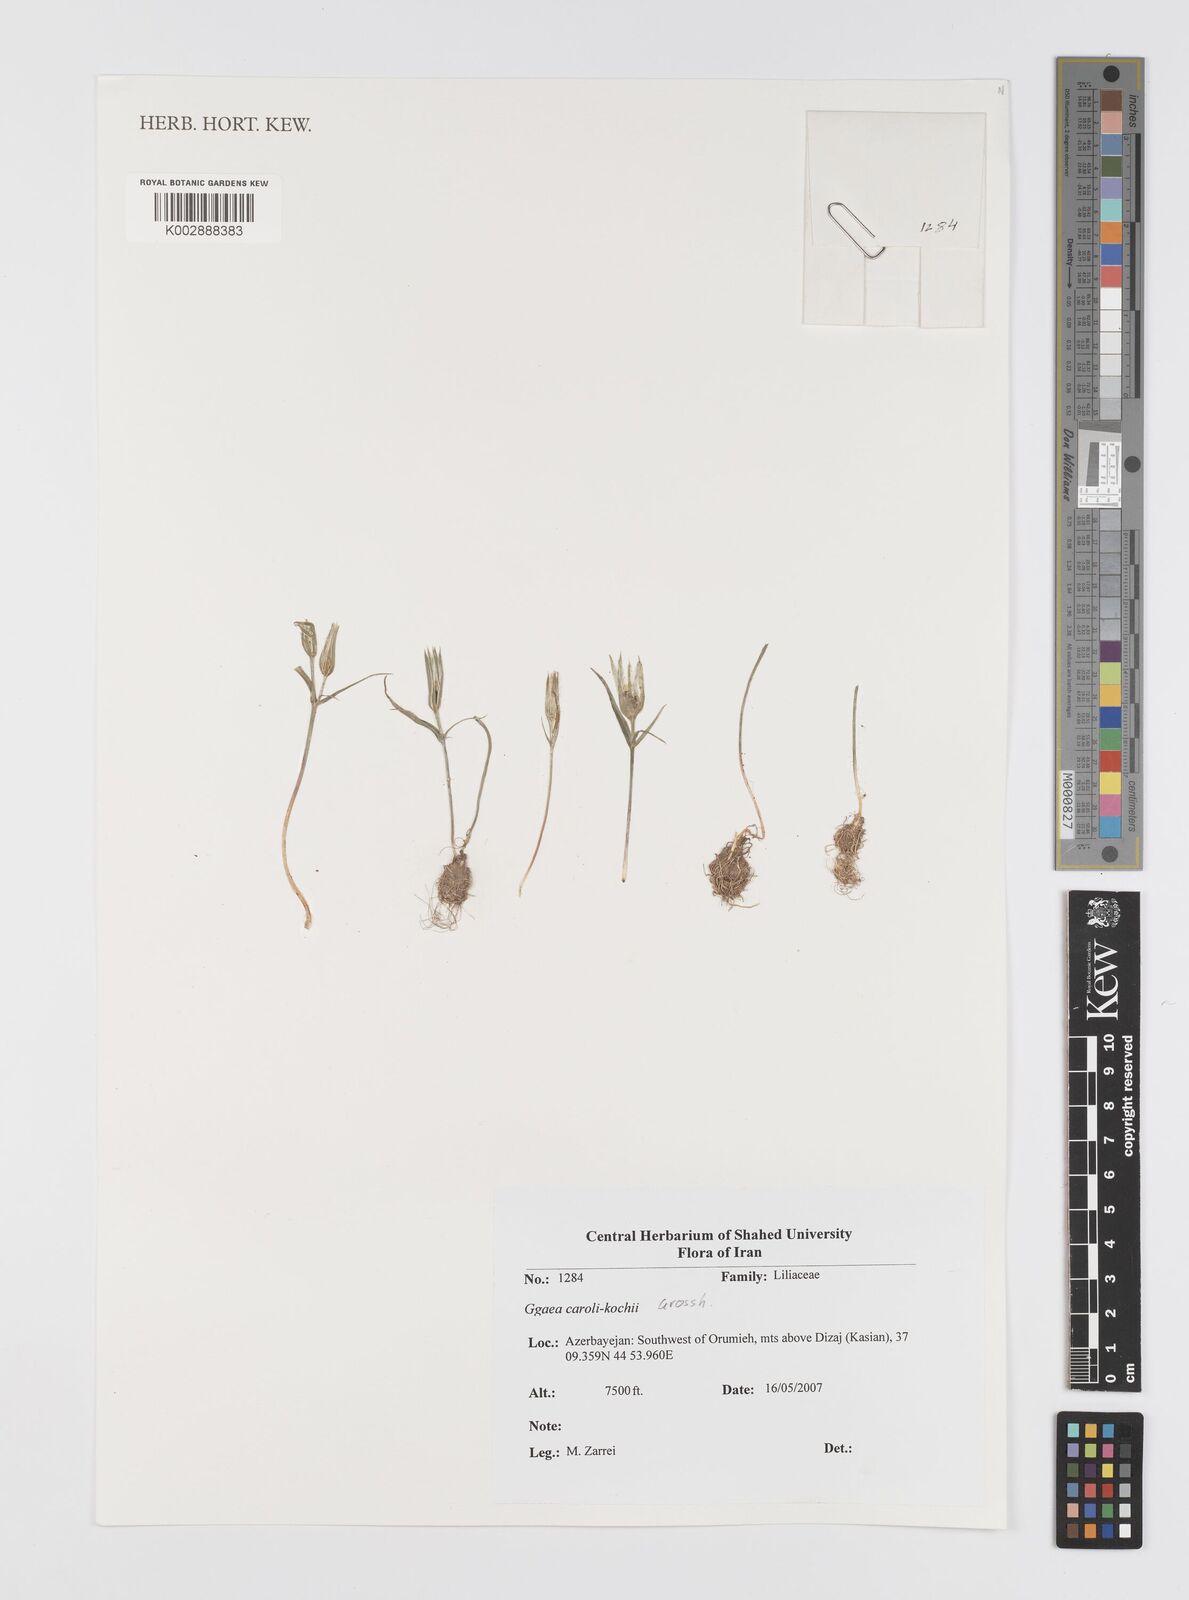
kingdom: Plantae
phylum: Tracheophyta
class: Liliopsida
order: Liliales
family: Liliaceae
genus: Gagea
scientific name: Gagea caroli-kochii
